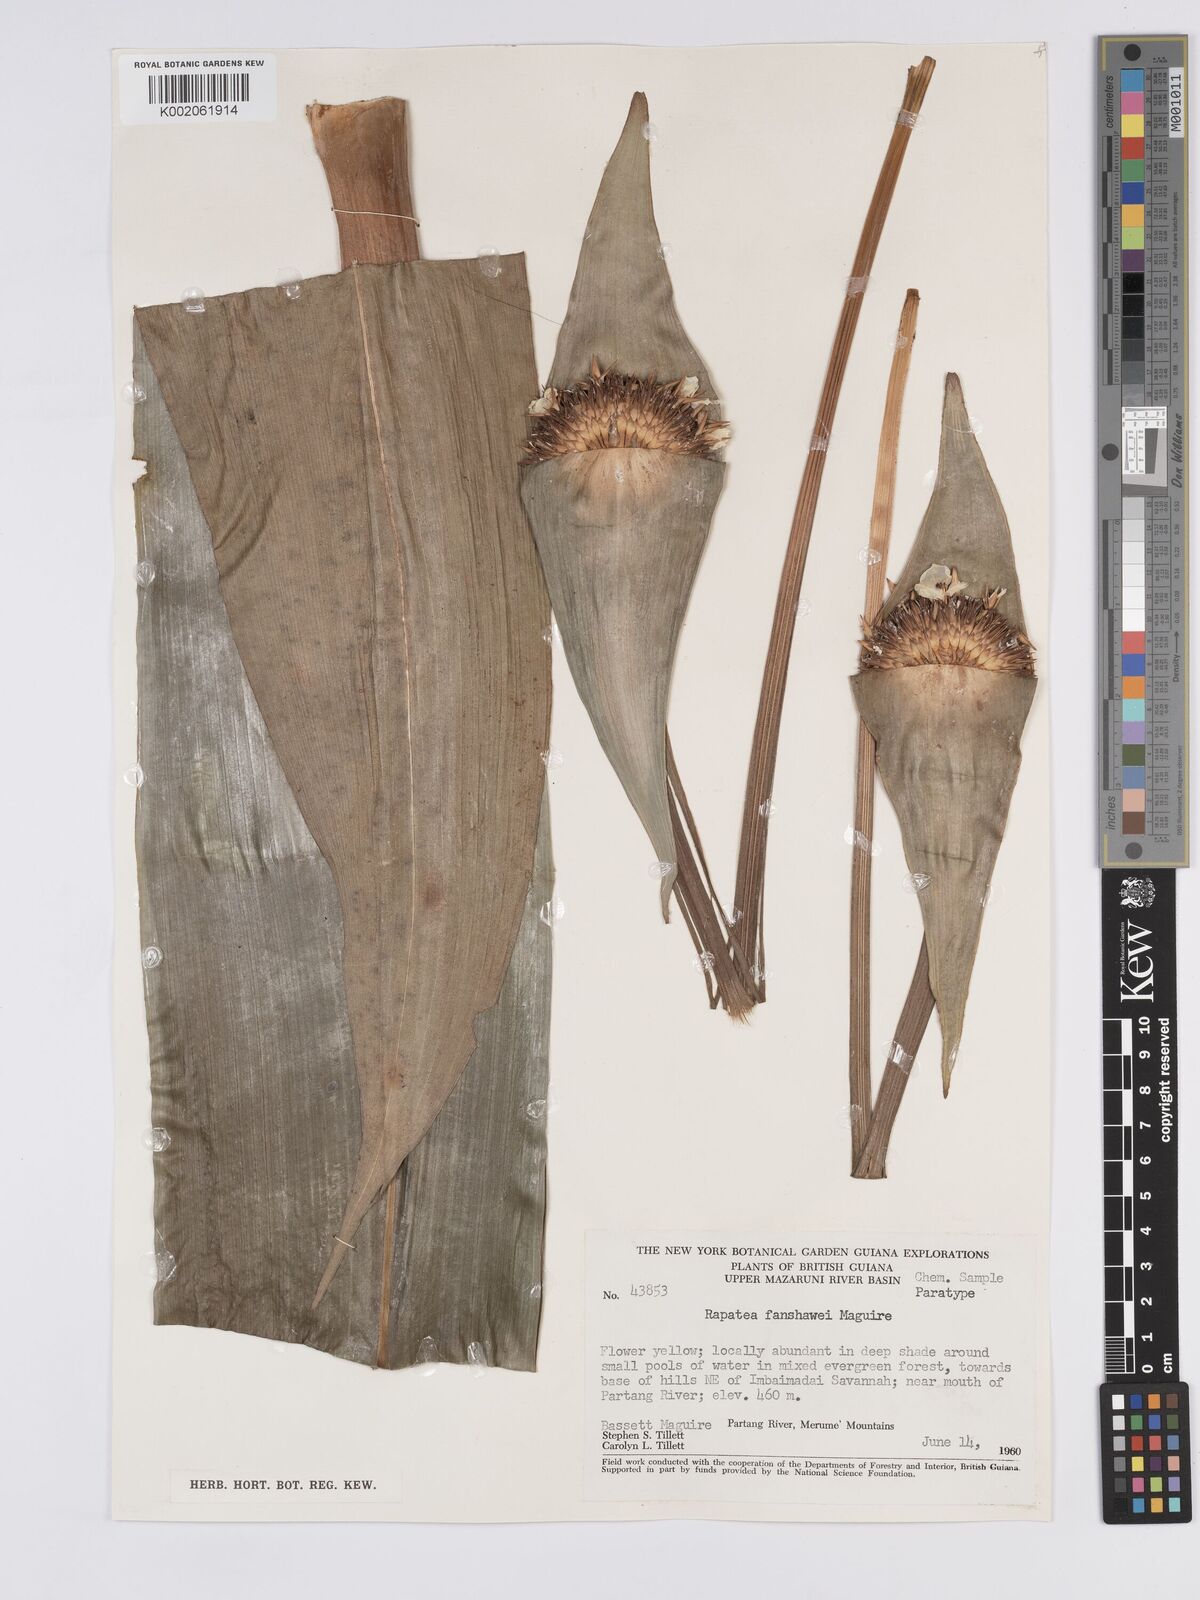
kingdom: Plantae
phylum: Tracheophyta
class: Liliopsida
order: Poales
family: Rapateaceae
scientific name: Rapateaceae
